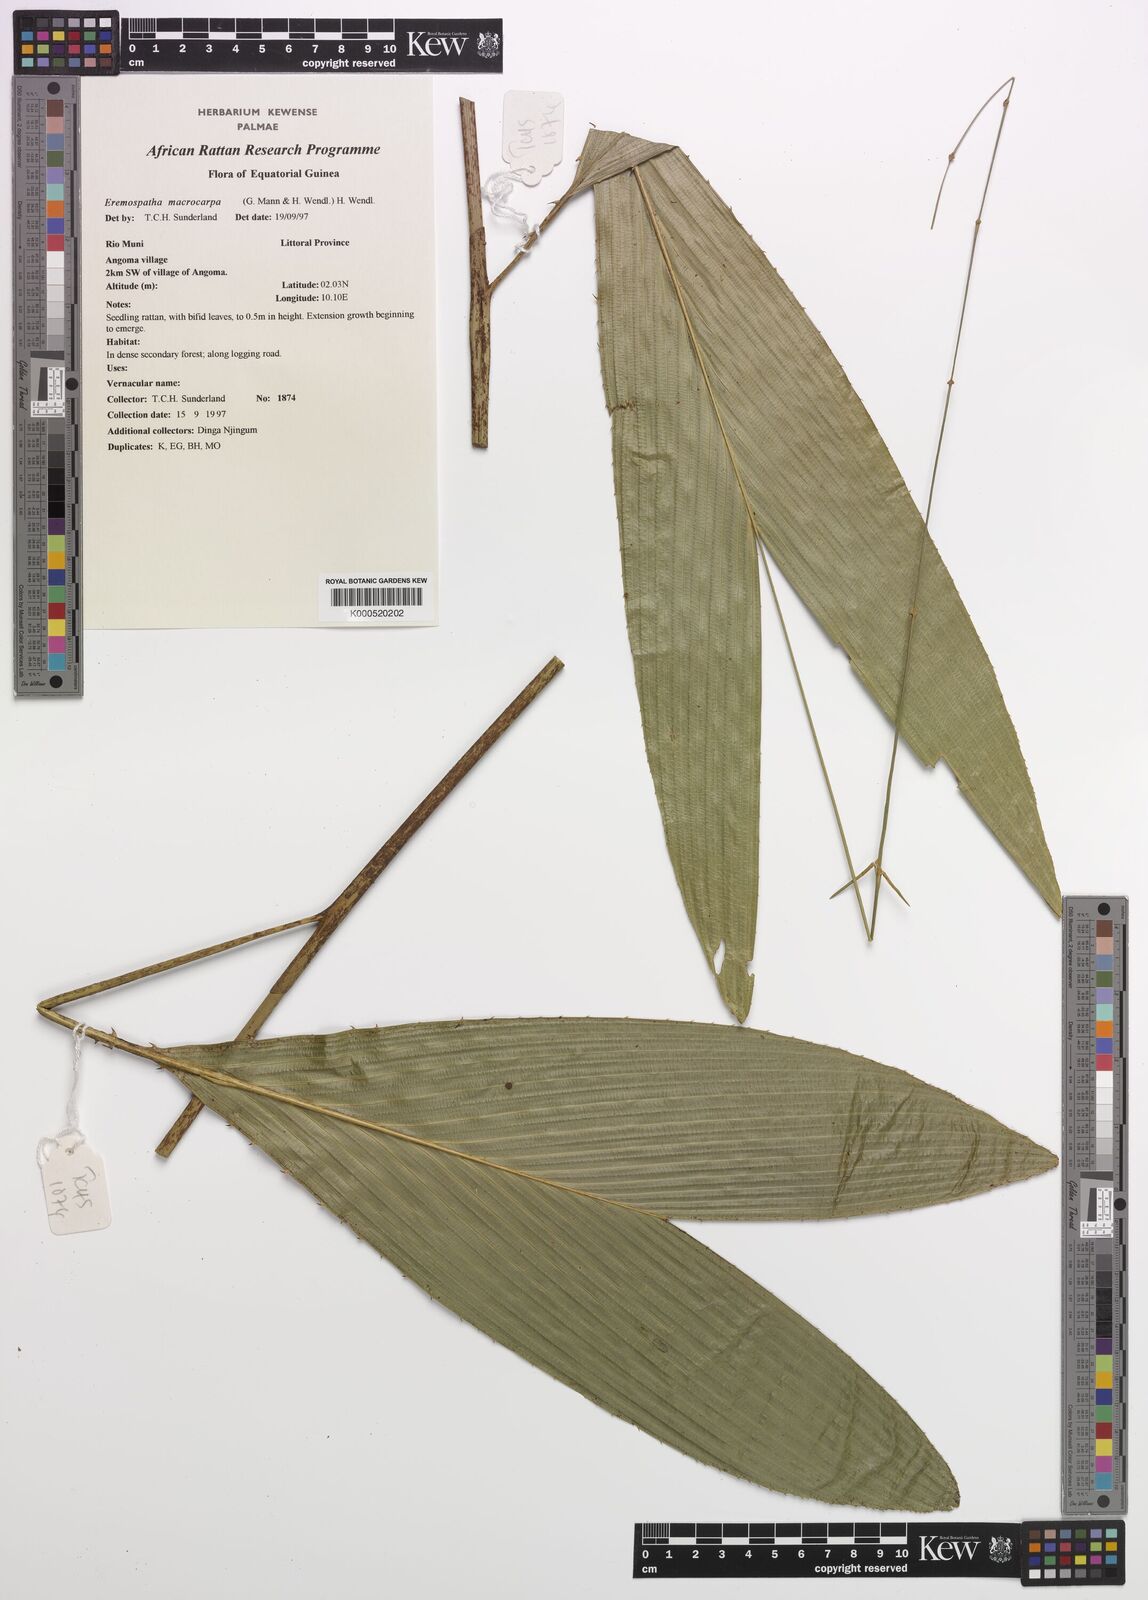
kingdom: Plantae
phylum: Tracheophyta
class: Liliopsida
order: Arecales
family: Arecaceae
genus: Eremospatha
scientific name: Eremospatha
